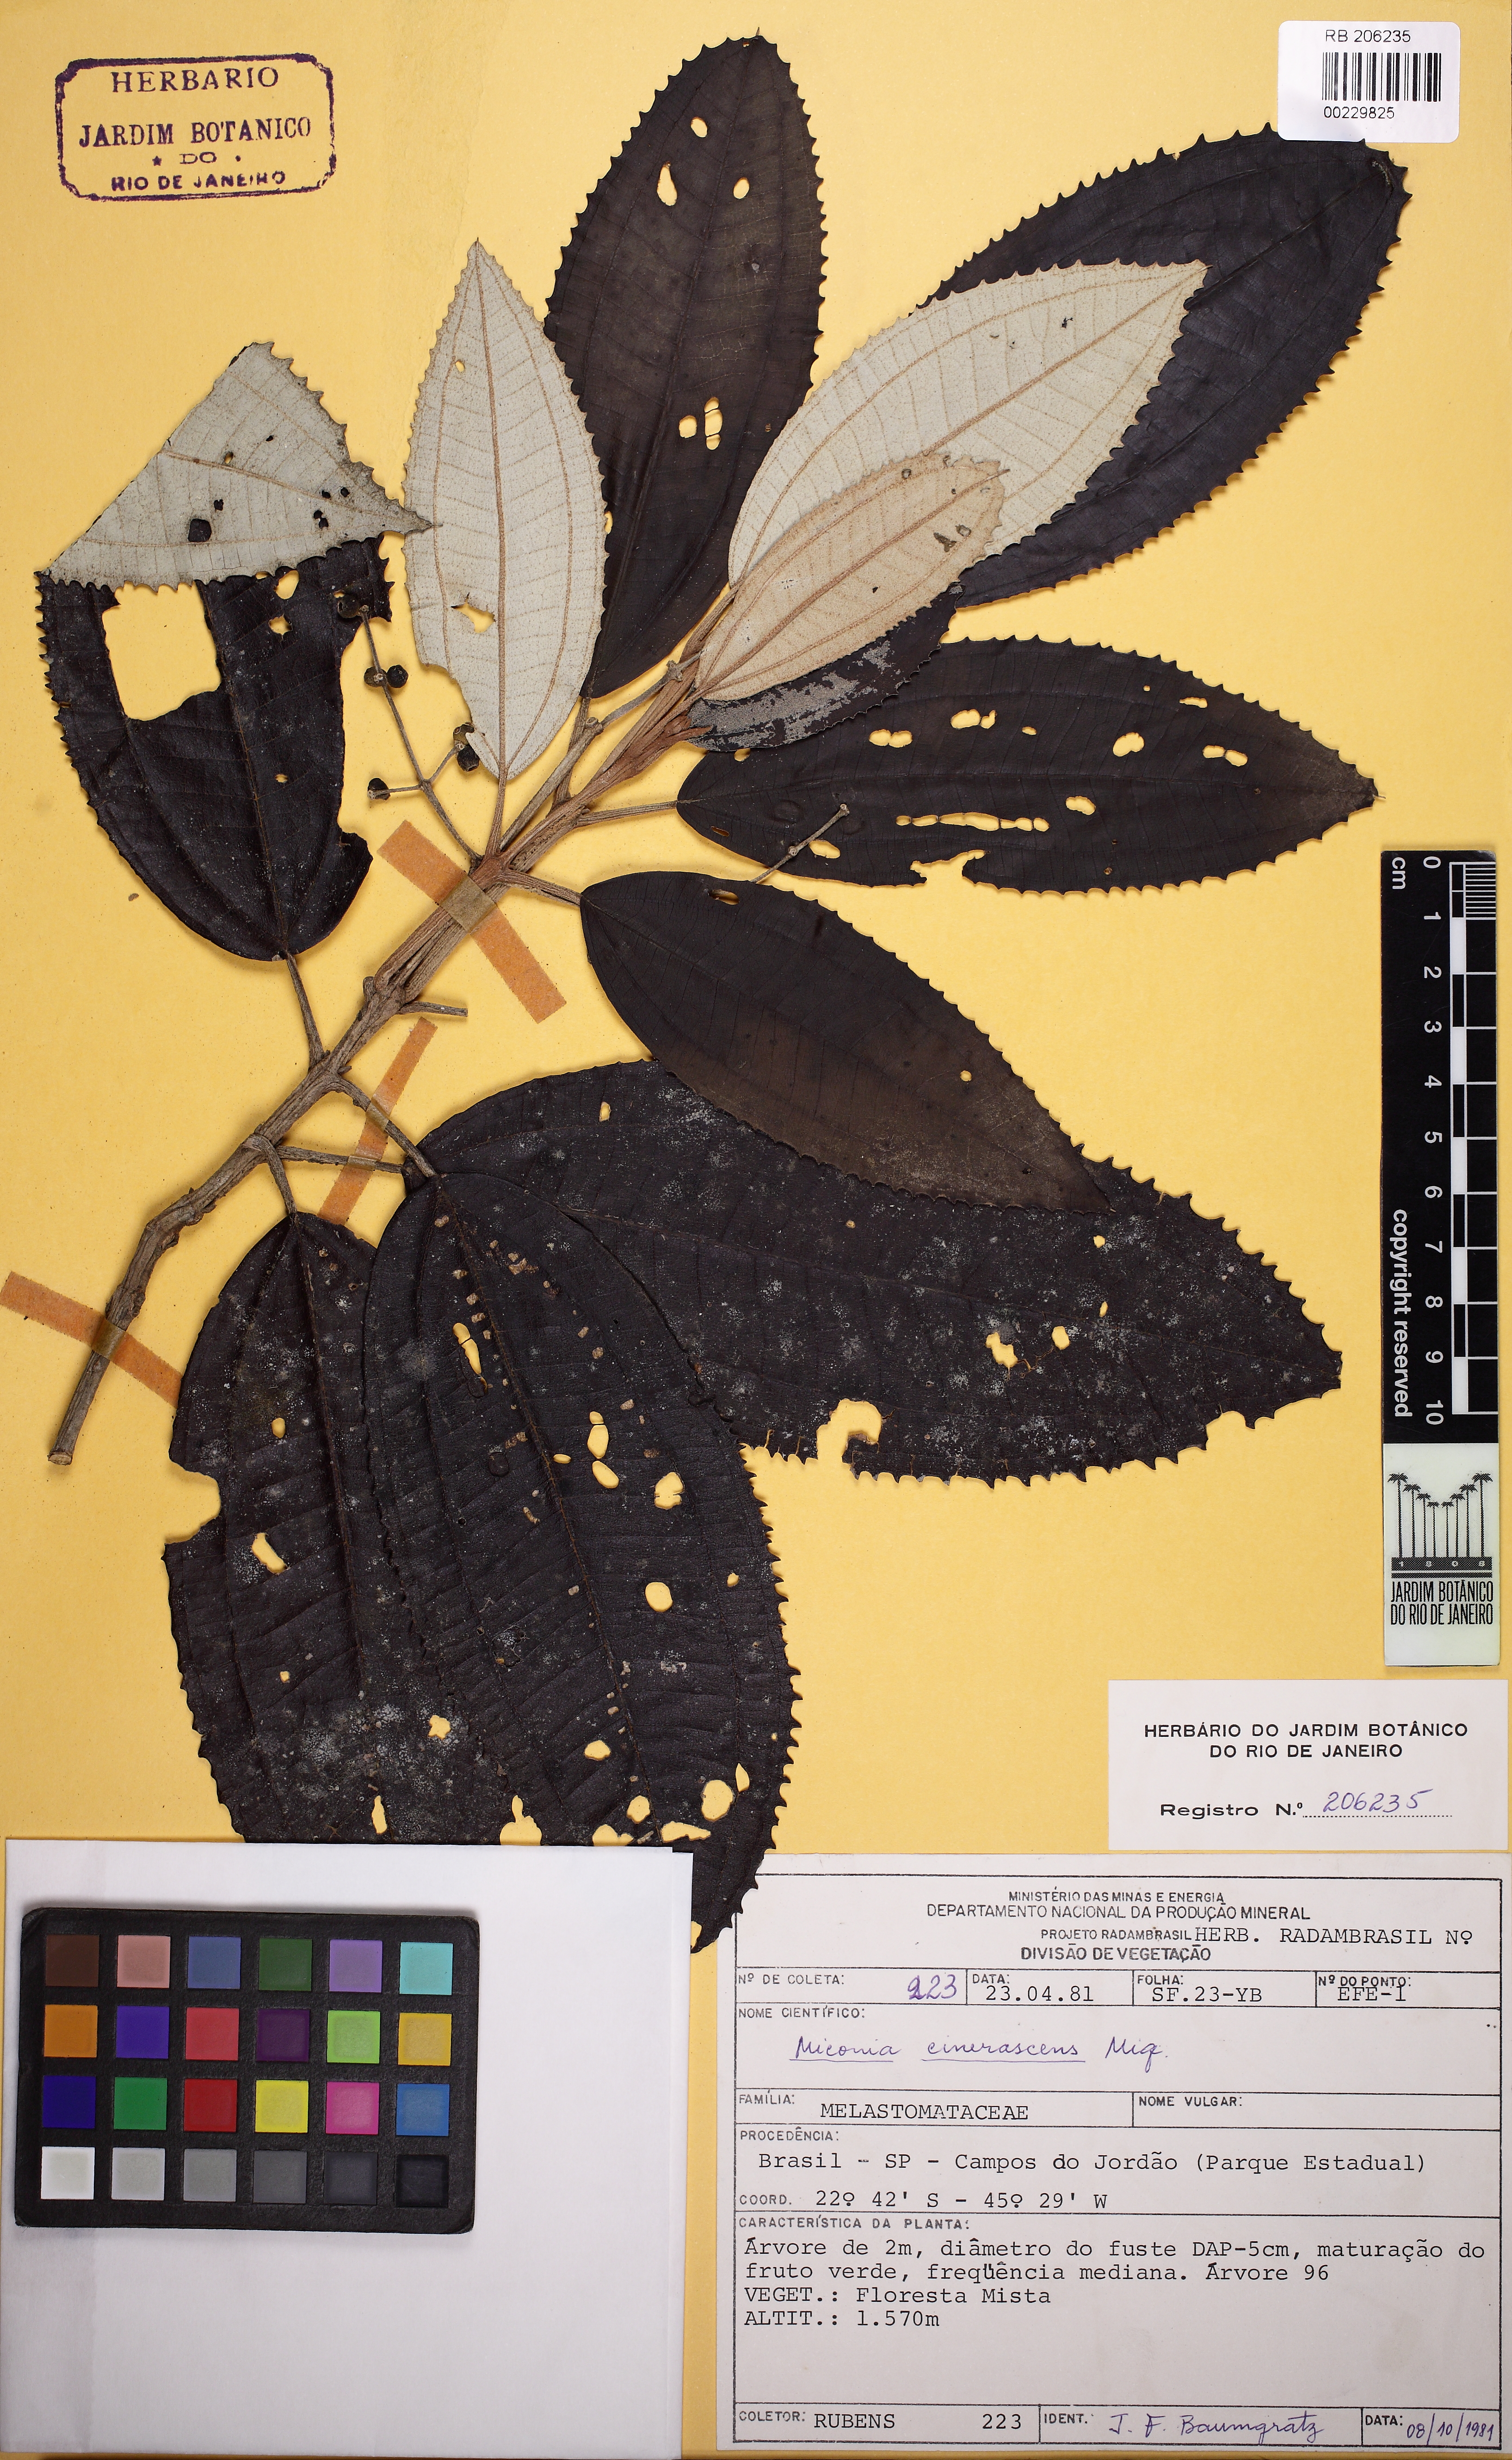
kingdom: Plantae
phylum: Tracheophyta
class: Magnoliopsida
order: Myrtales
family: Melastomataceae
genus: Miconia
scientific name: Miconia cinerascens
